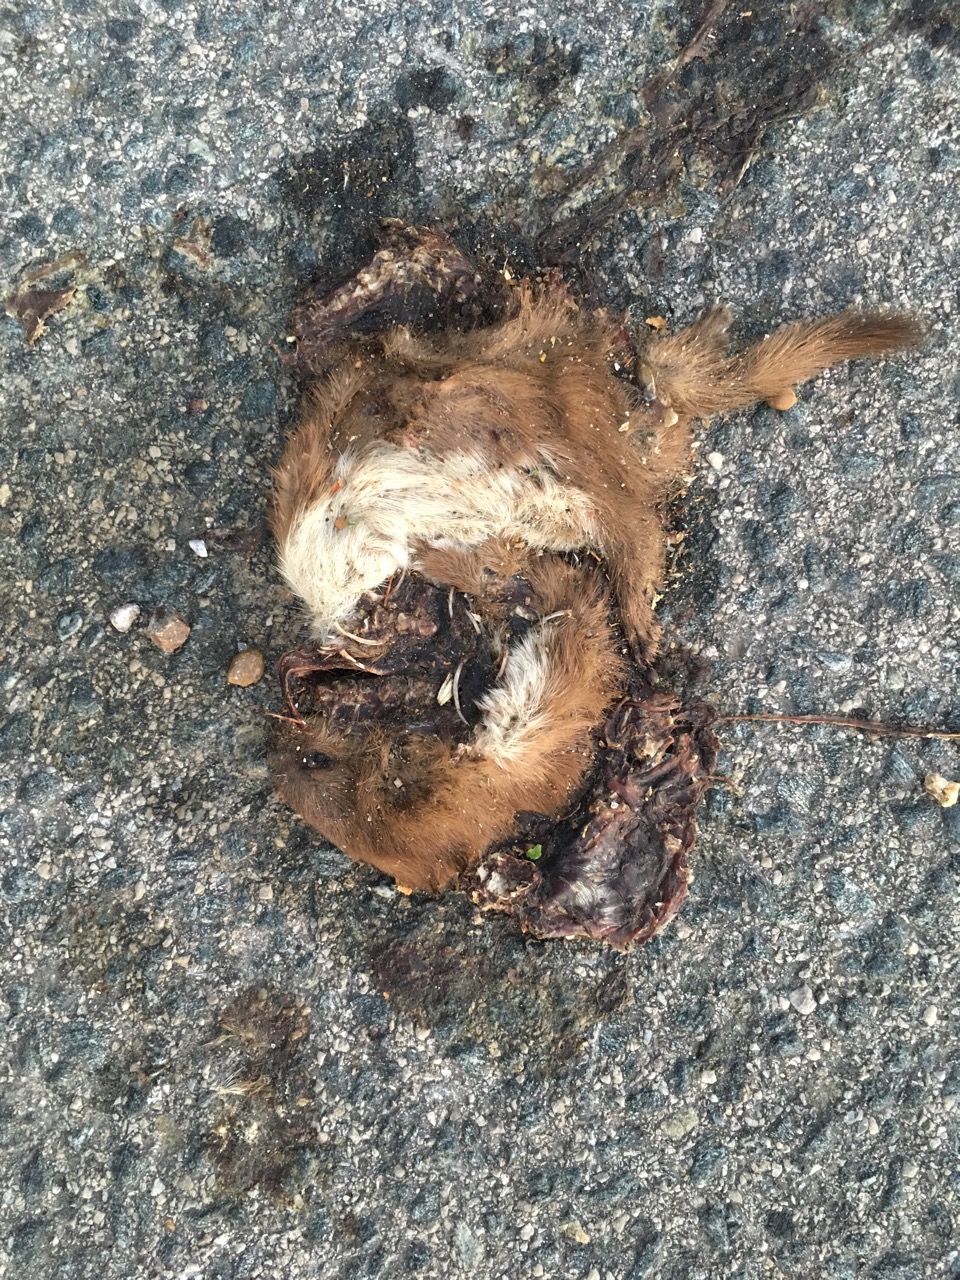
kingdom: Animalia
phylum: Chordata
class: Mammalia
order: Carnivora
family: Mustelidae
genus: Mustela
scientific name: Mustela nivalis
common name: Least weasel
